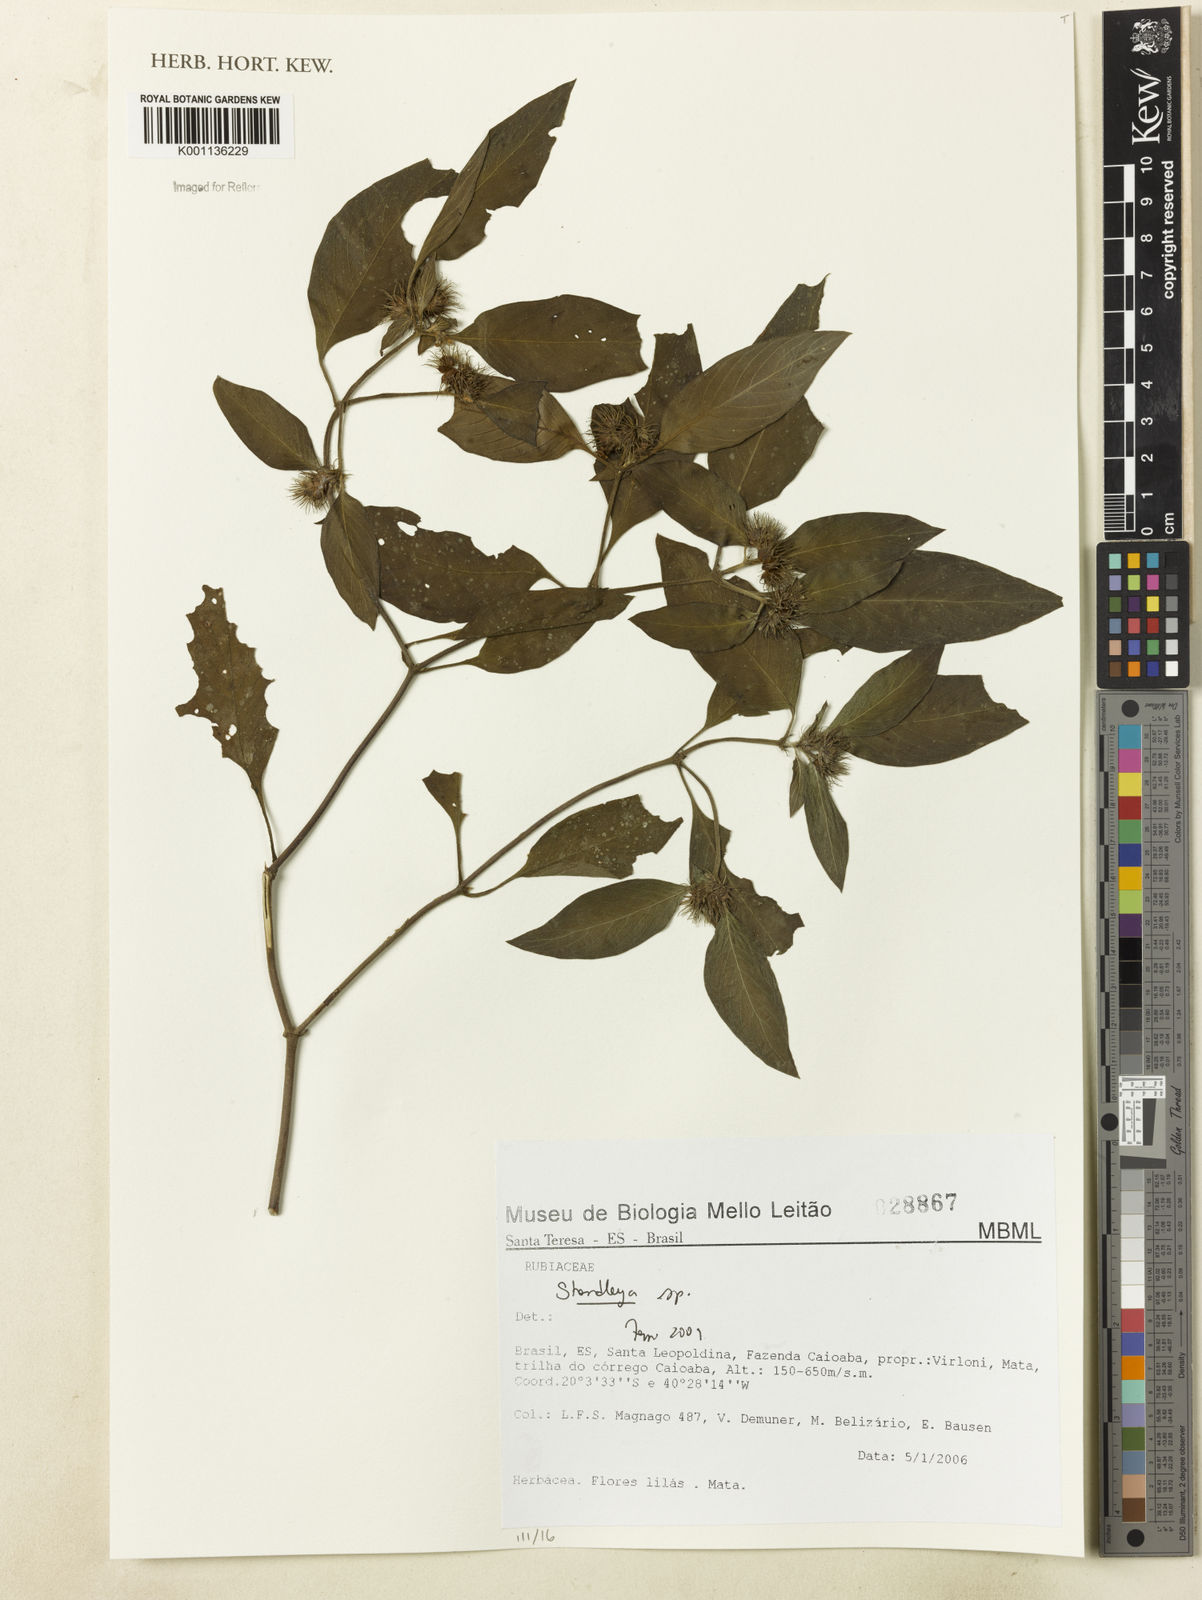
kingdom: Plantae
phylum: Tracheophyta
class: Magnoliopsida
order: Gentianales
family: Rubiaceae
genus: Standleya
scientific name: Standleya
